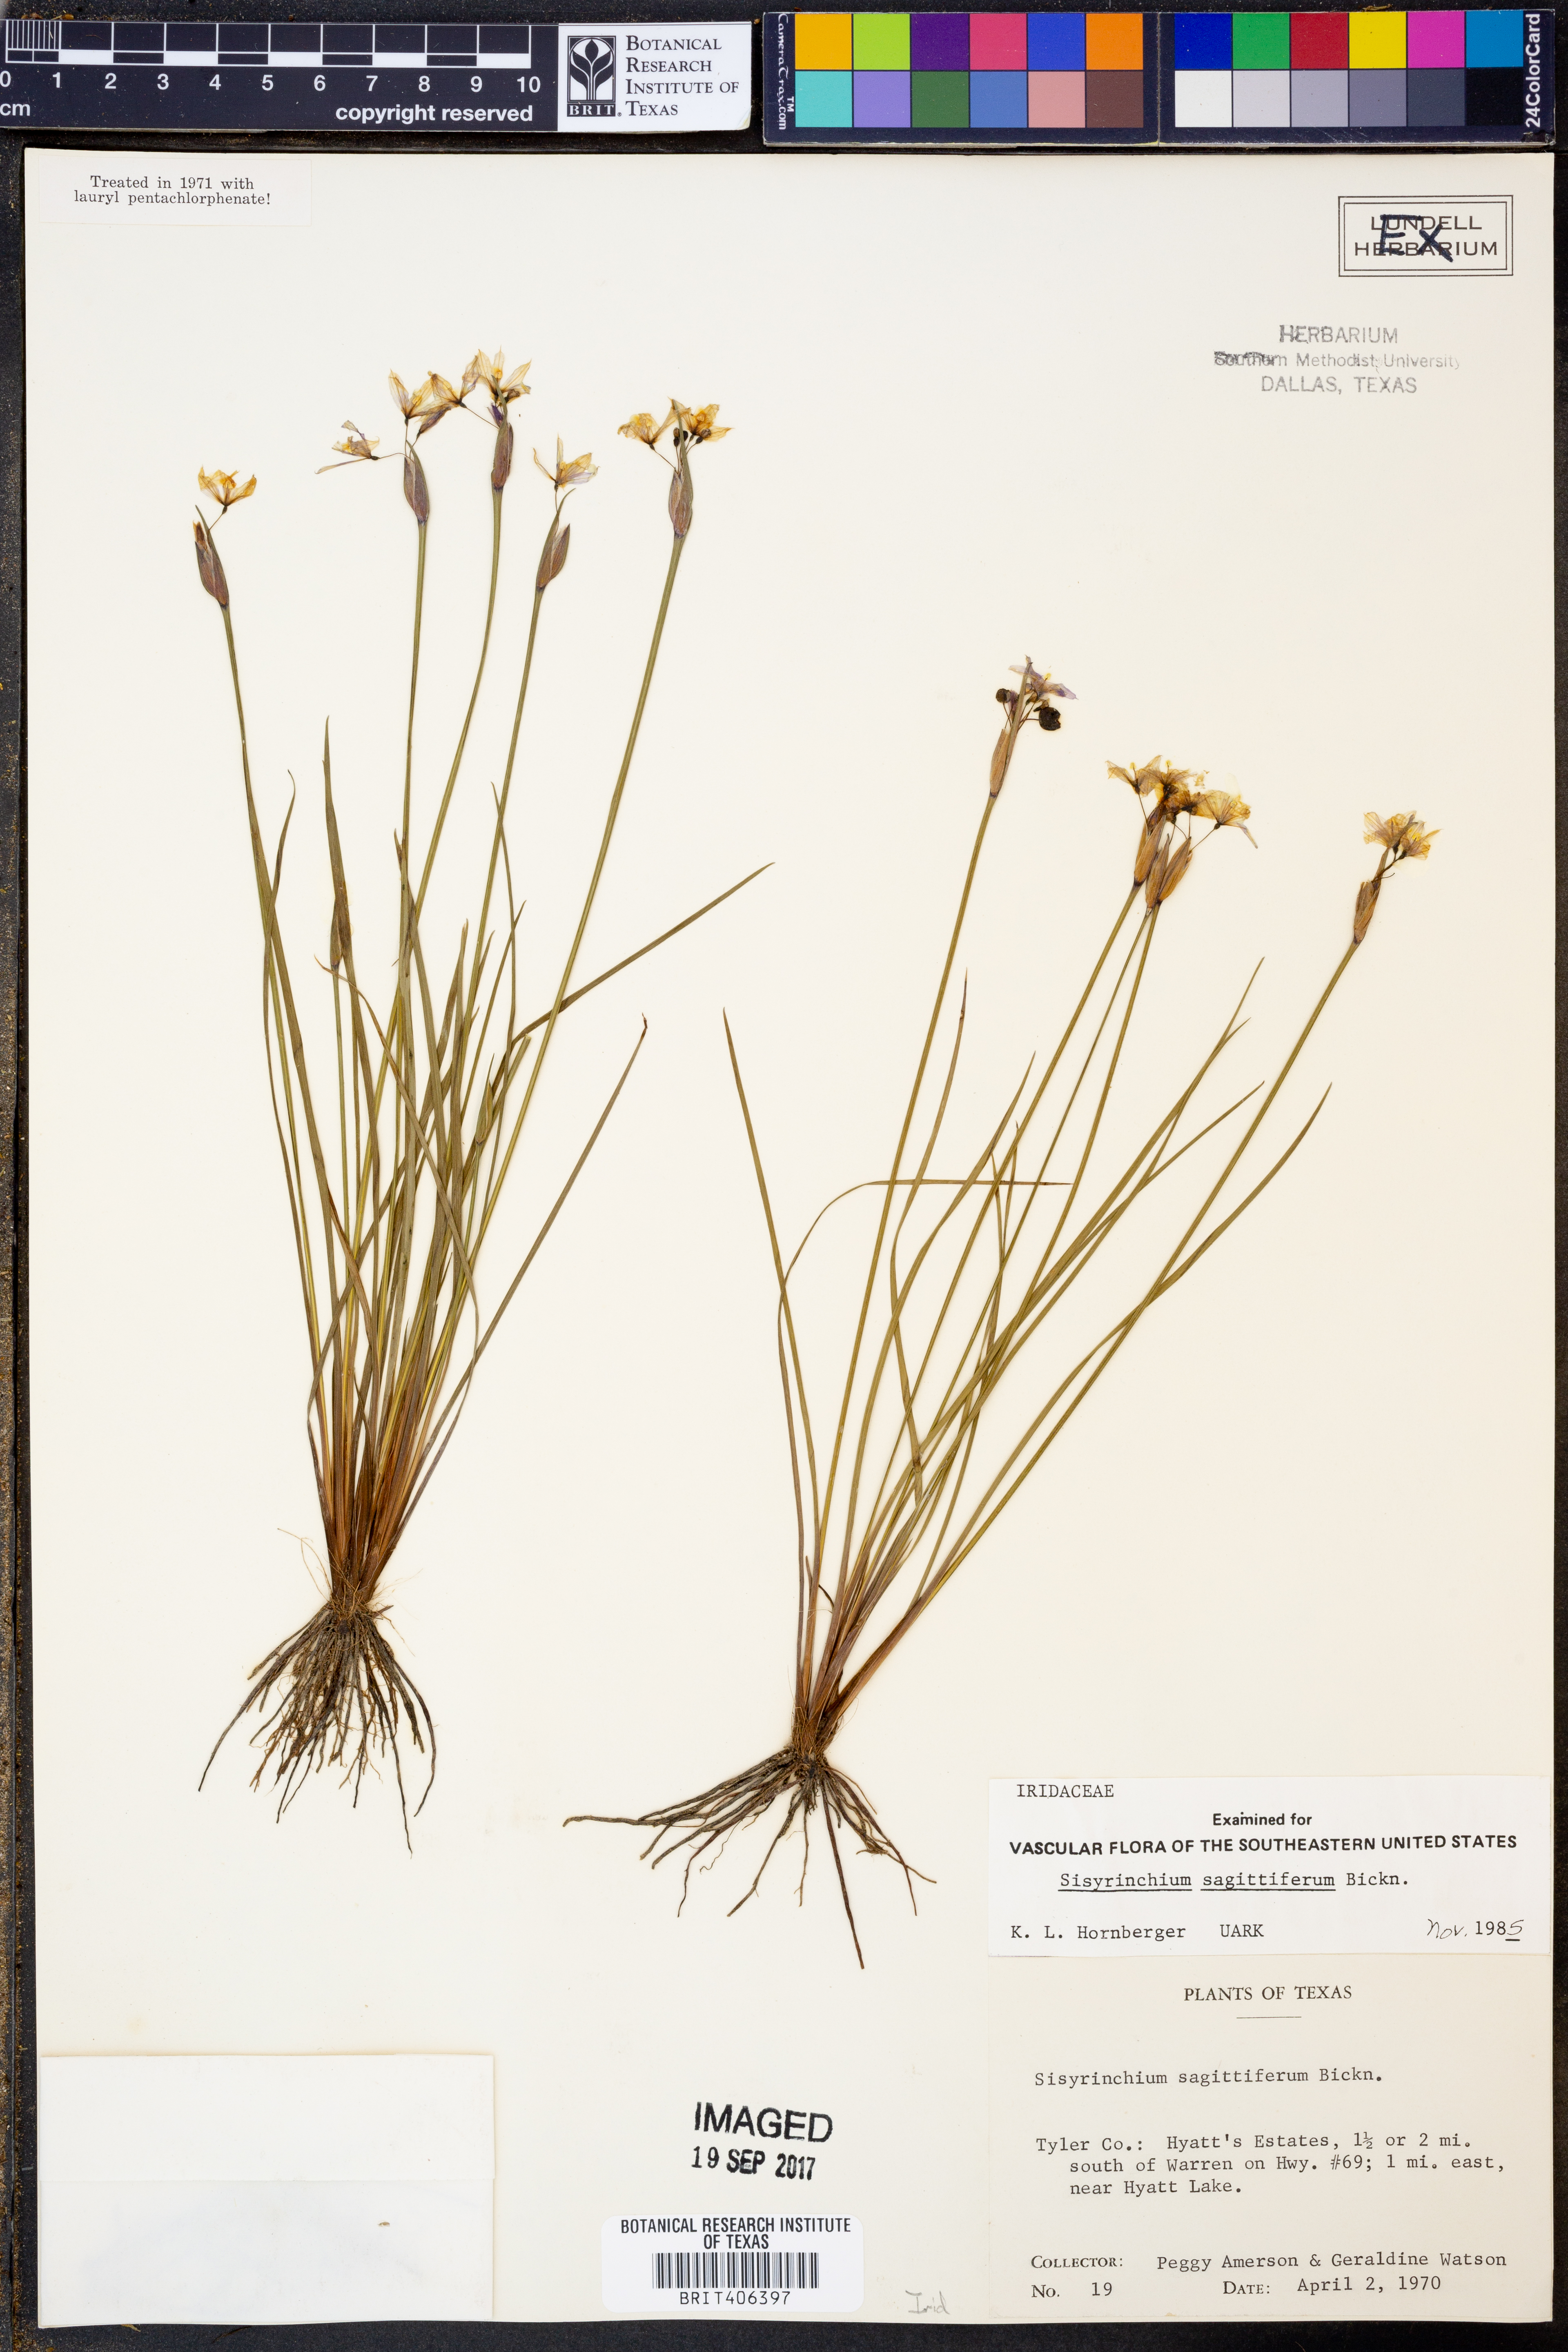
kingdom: Plantae
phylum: Tracheophyta
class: Liliopsida
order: Asparagales
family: Iridaceae
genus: Sisyrinchium
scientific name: Sisyrinchium sagittiferum
